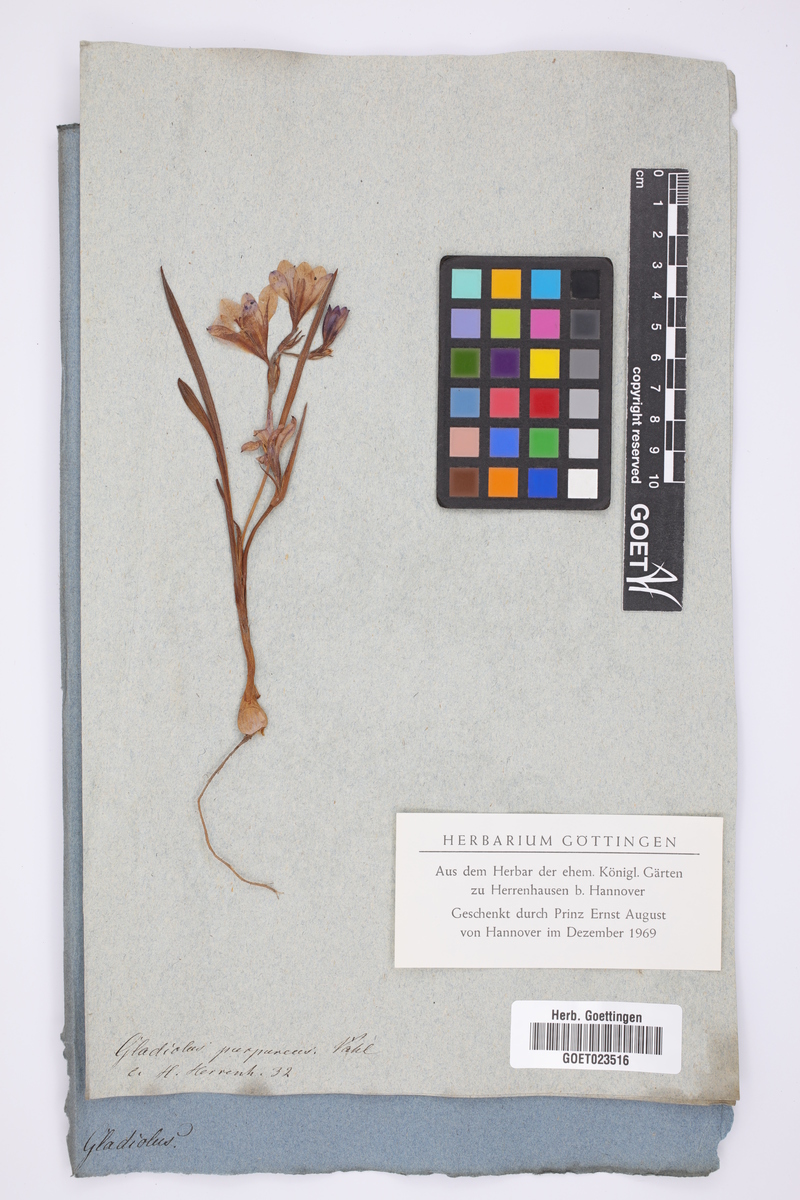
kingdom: Plantae
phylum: Tracheophyta
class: Liliopsida
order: Asparagales
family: Iridaceae
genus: Babiana
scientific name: Babiana villosa
